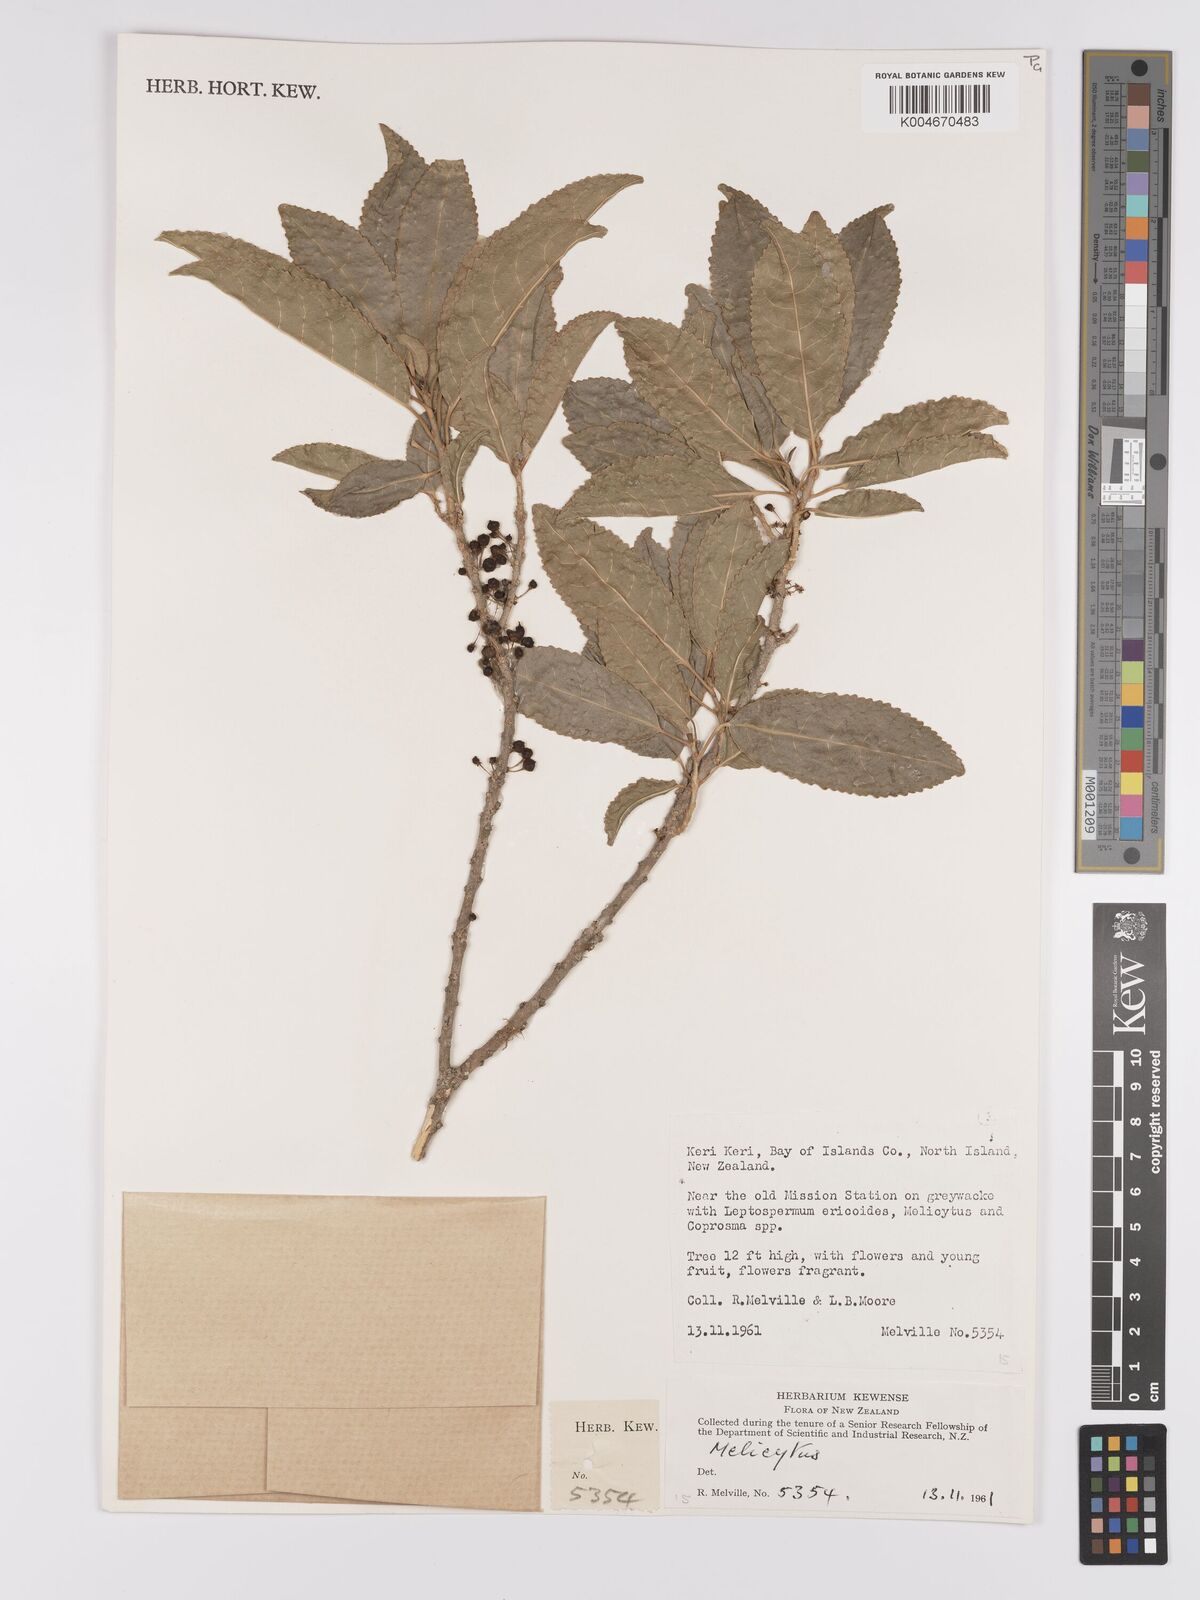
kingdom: Plantae
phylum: Tracheophyta
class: Magnoliopsida
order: Malpighiales
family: Violaceae
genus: Melicytus
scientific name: Melicytus
